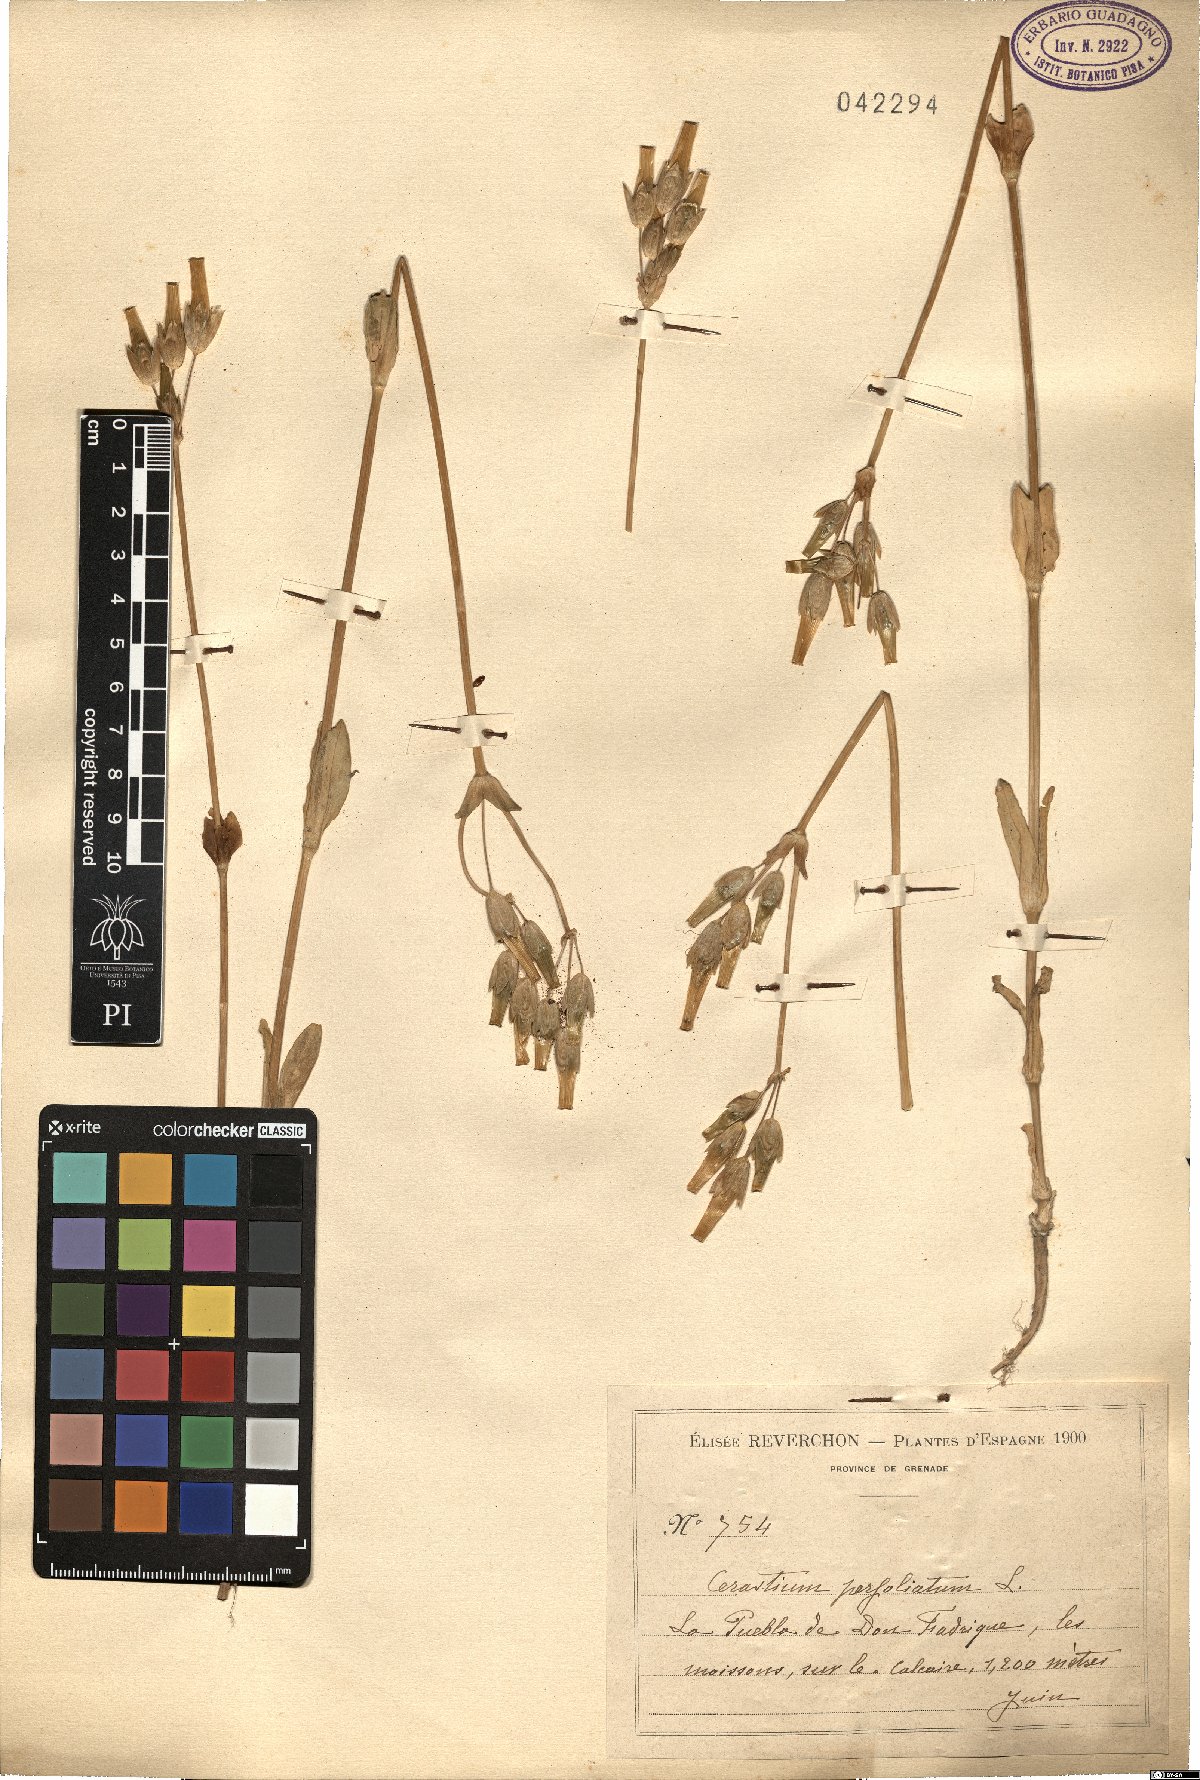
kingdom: Plantae
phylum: Tracheophyta
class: Magnoliopsida
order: Caryophyllales
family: Caryophyllaceae
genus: Dichodon
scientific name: Dichodon perfoliatum
